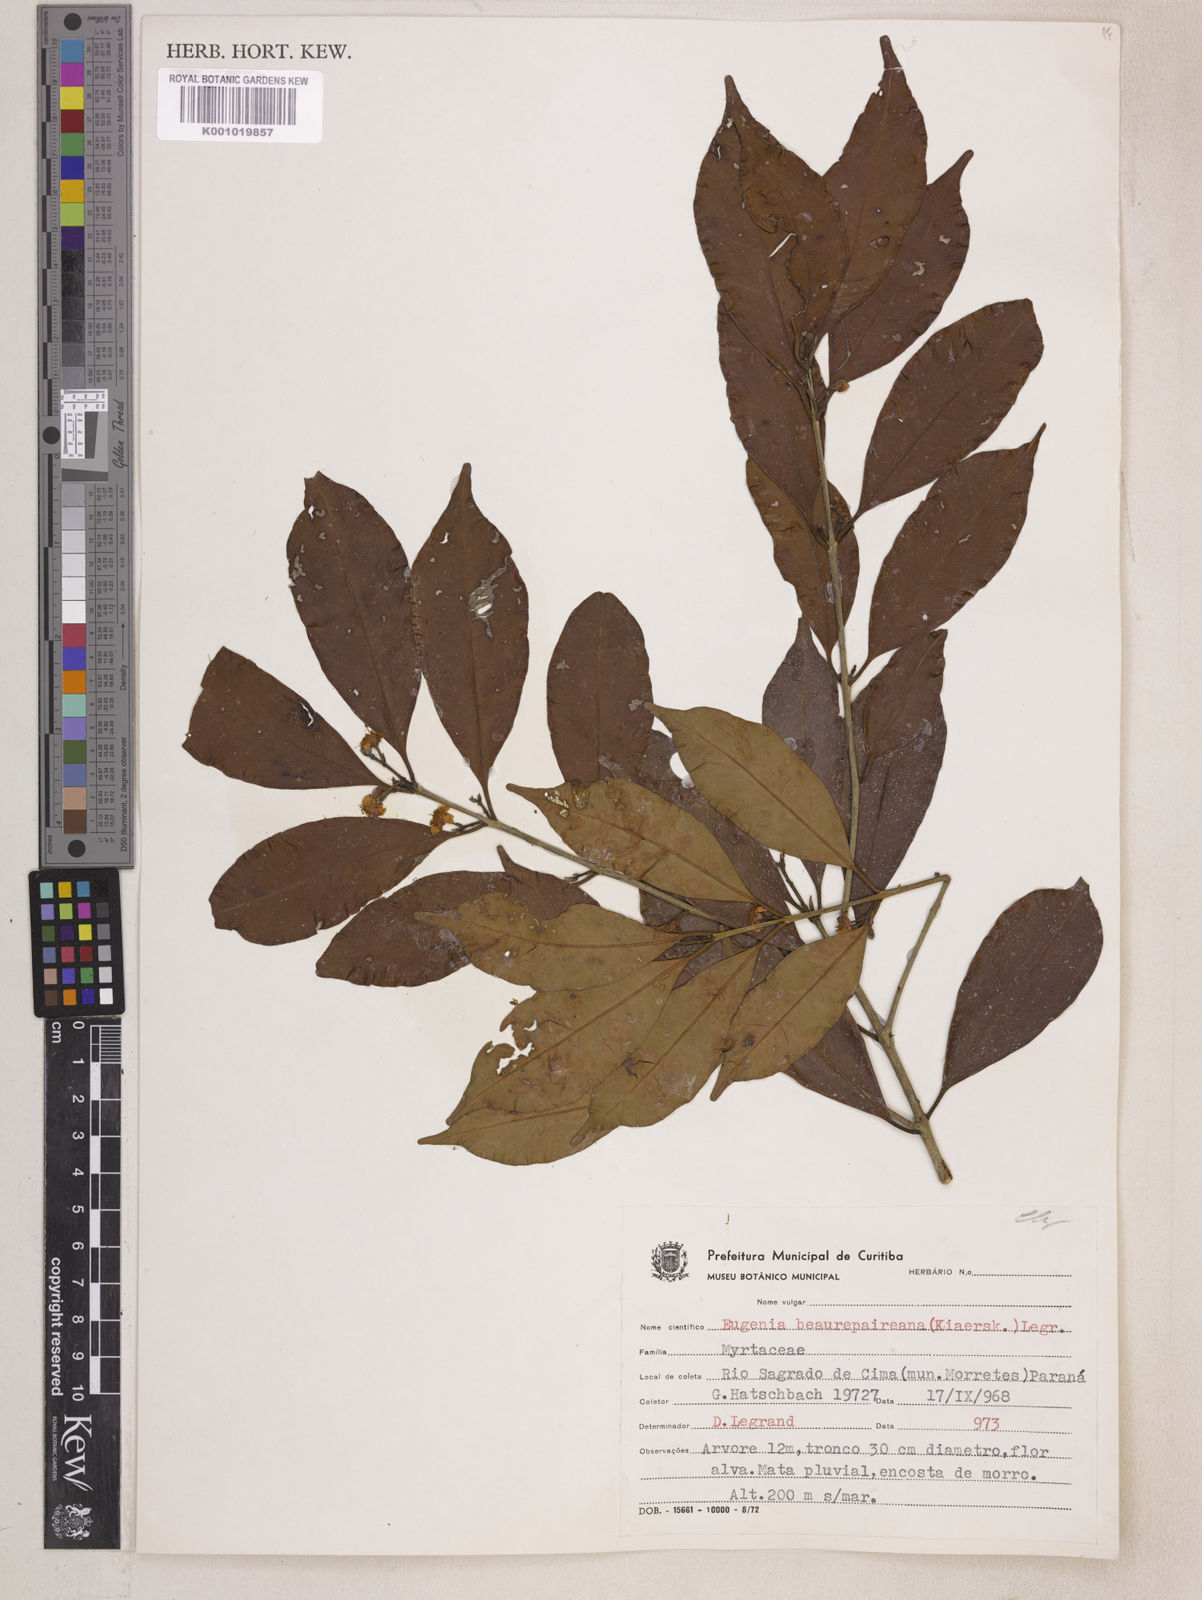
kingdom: Plantae
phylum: Tracheophyta
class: Magnoliopsida
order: Myrtales
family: Myrtaceae
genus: Eugenia
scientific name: Eugenia ternatifolia
